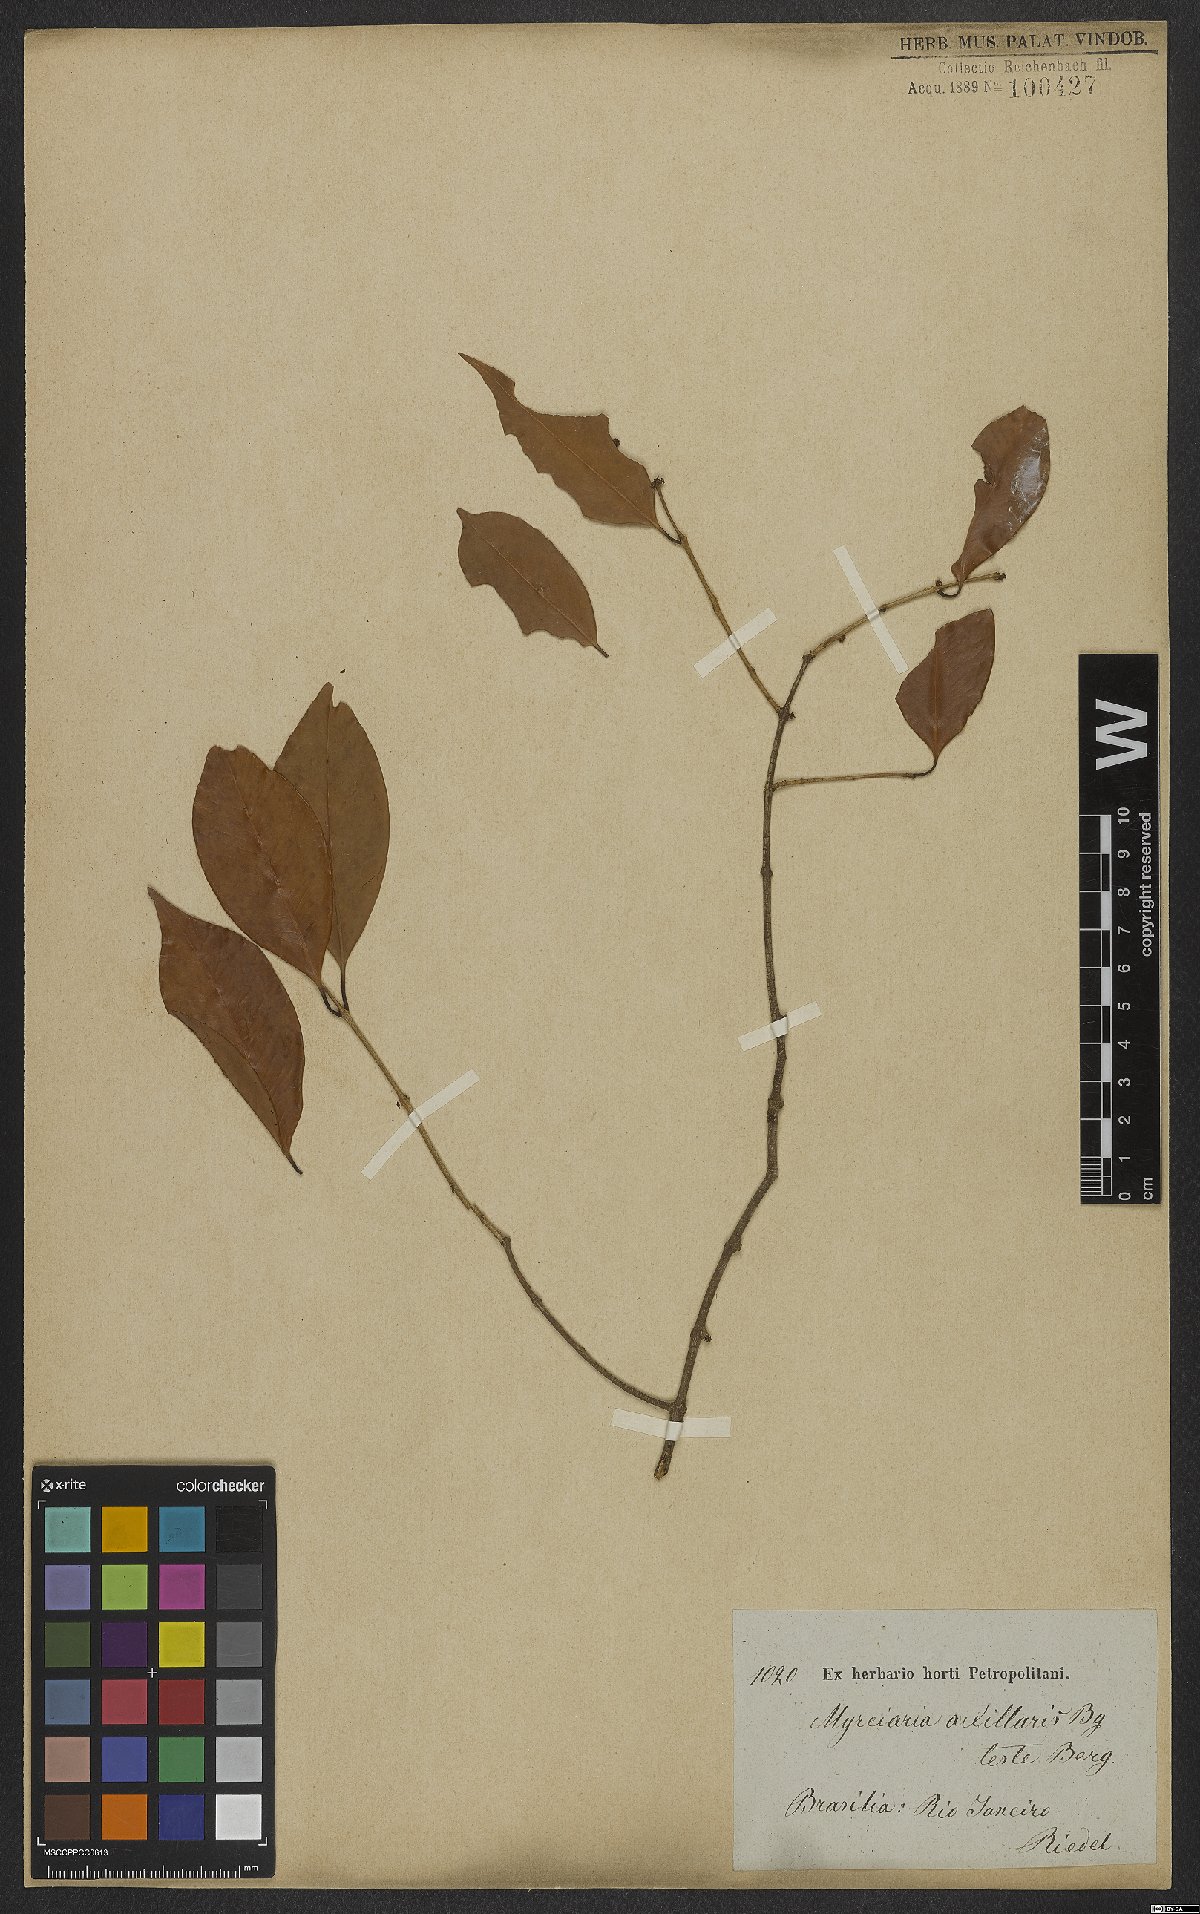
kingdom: Plantae
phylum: Tracheophyta
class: Magnoliopsida
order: Myrtales
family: Myrtaceae
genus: Myrciaria
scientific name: Myrciaria axillaris
